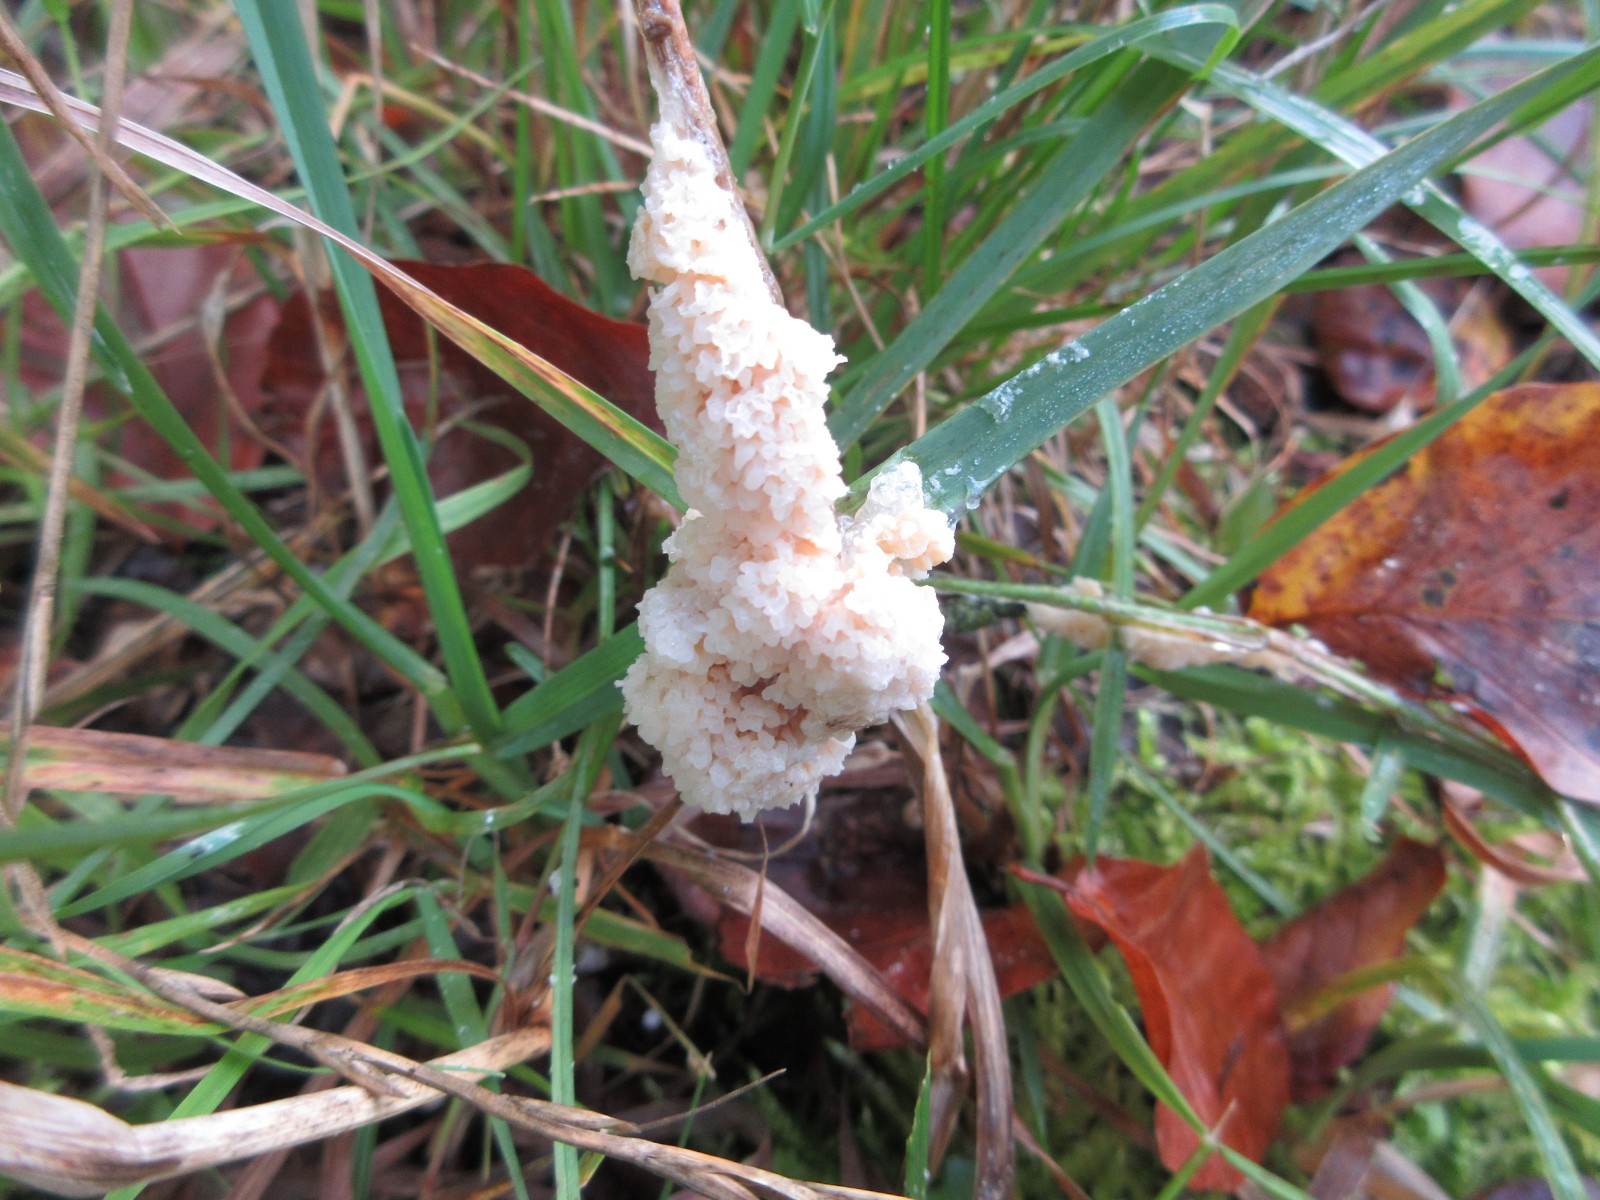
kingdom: Protozoa
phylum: Mycetozoa
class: Myxomycetes
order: Physarales
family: Physaraceae
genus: Didymium
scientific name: Didymium
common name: urteskum
